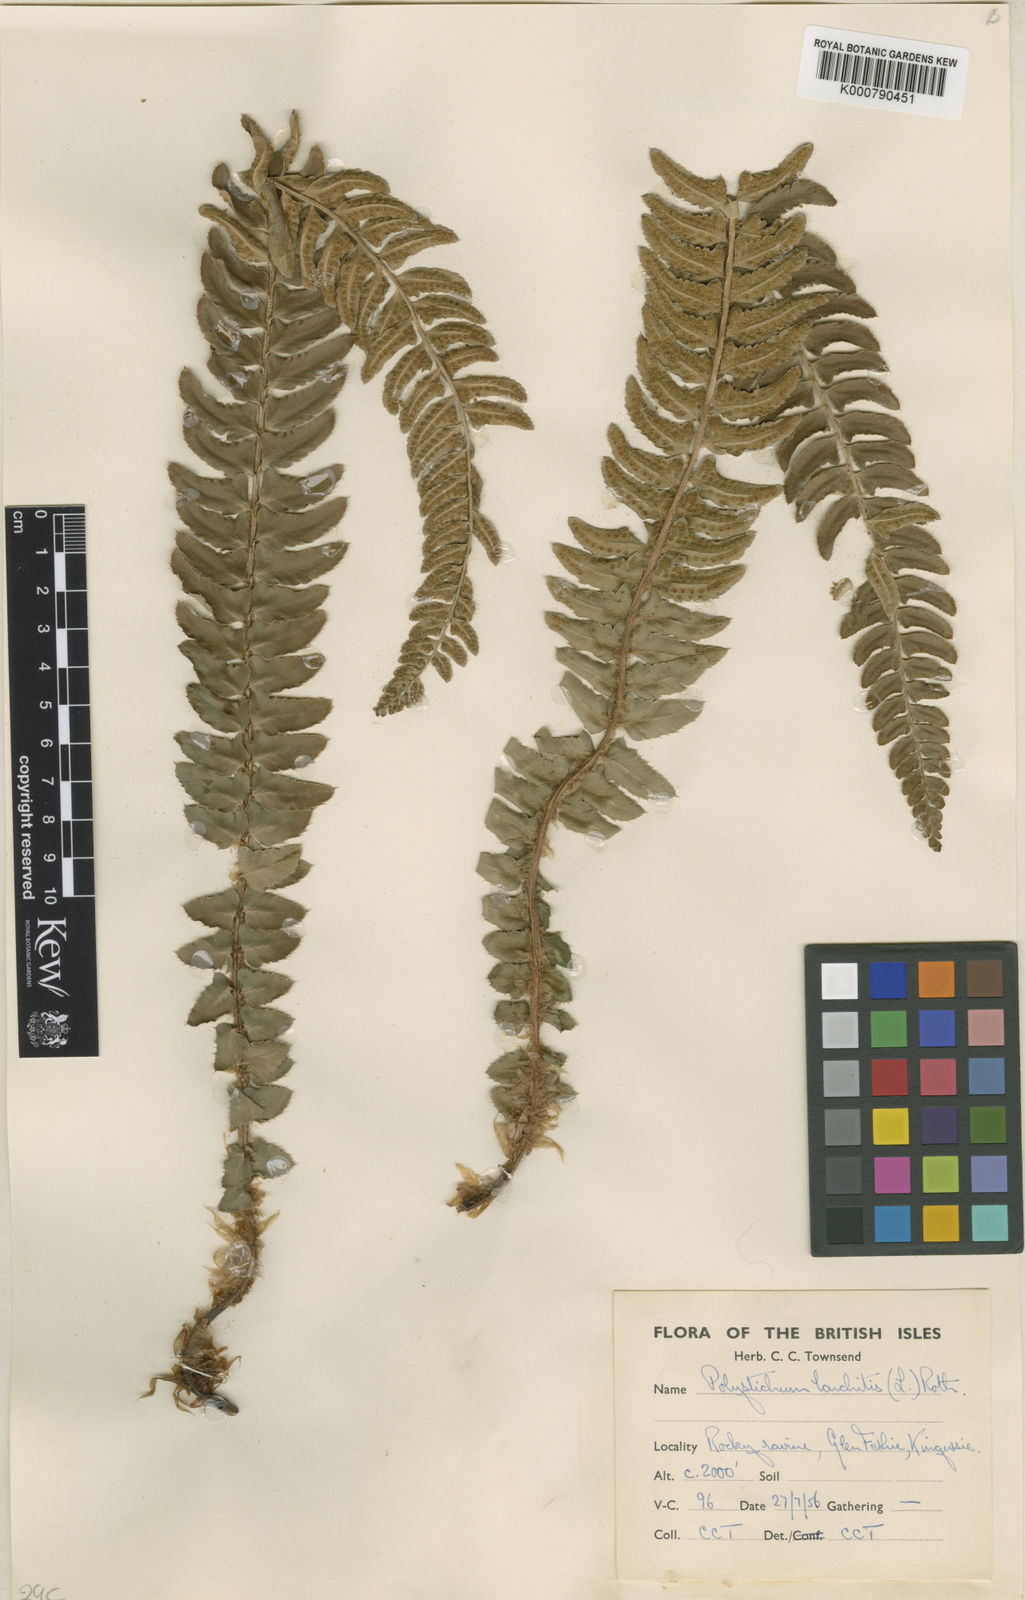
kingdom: Plantae
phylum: Tracheophyta
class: Polypodiopsida
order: Polypodiales
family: Dryopteridaceae
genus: Polystichum
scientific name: Polystichum lonchitis
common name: Holly fern
